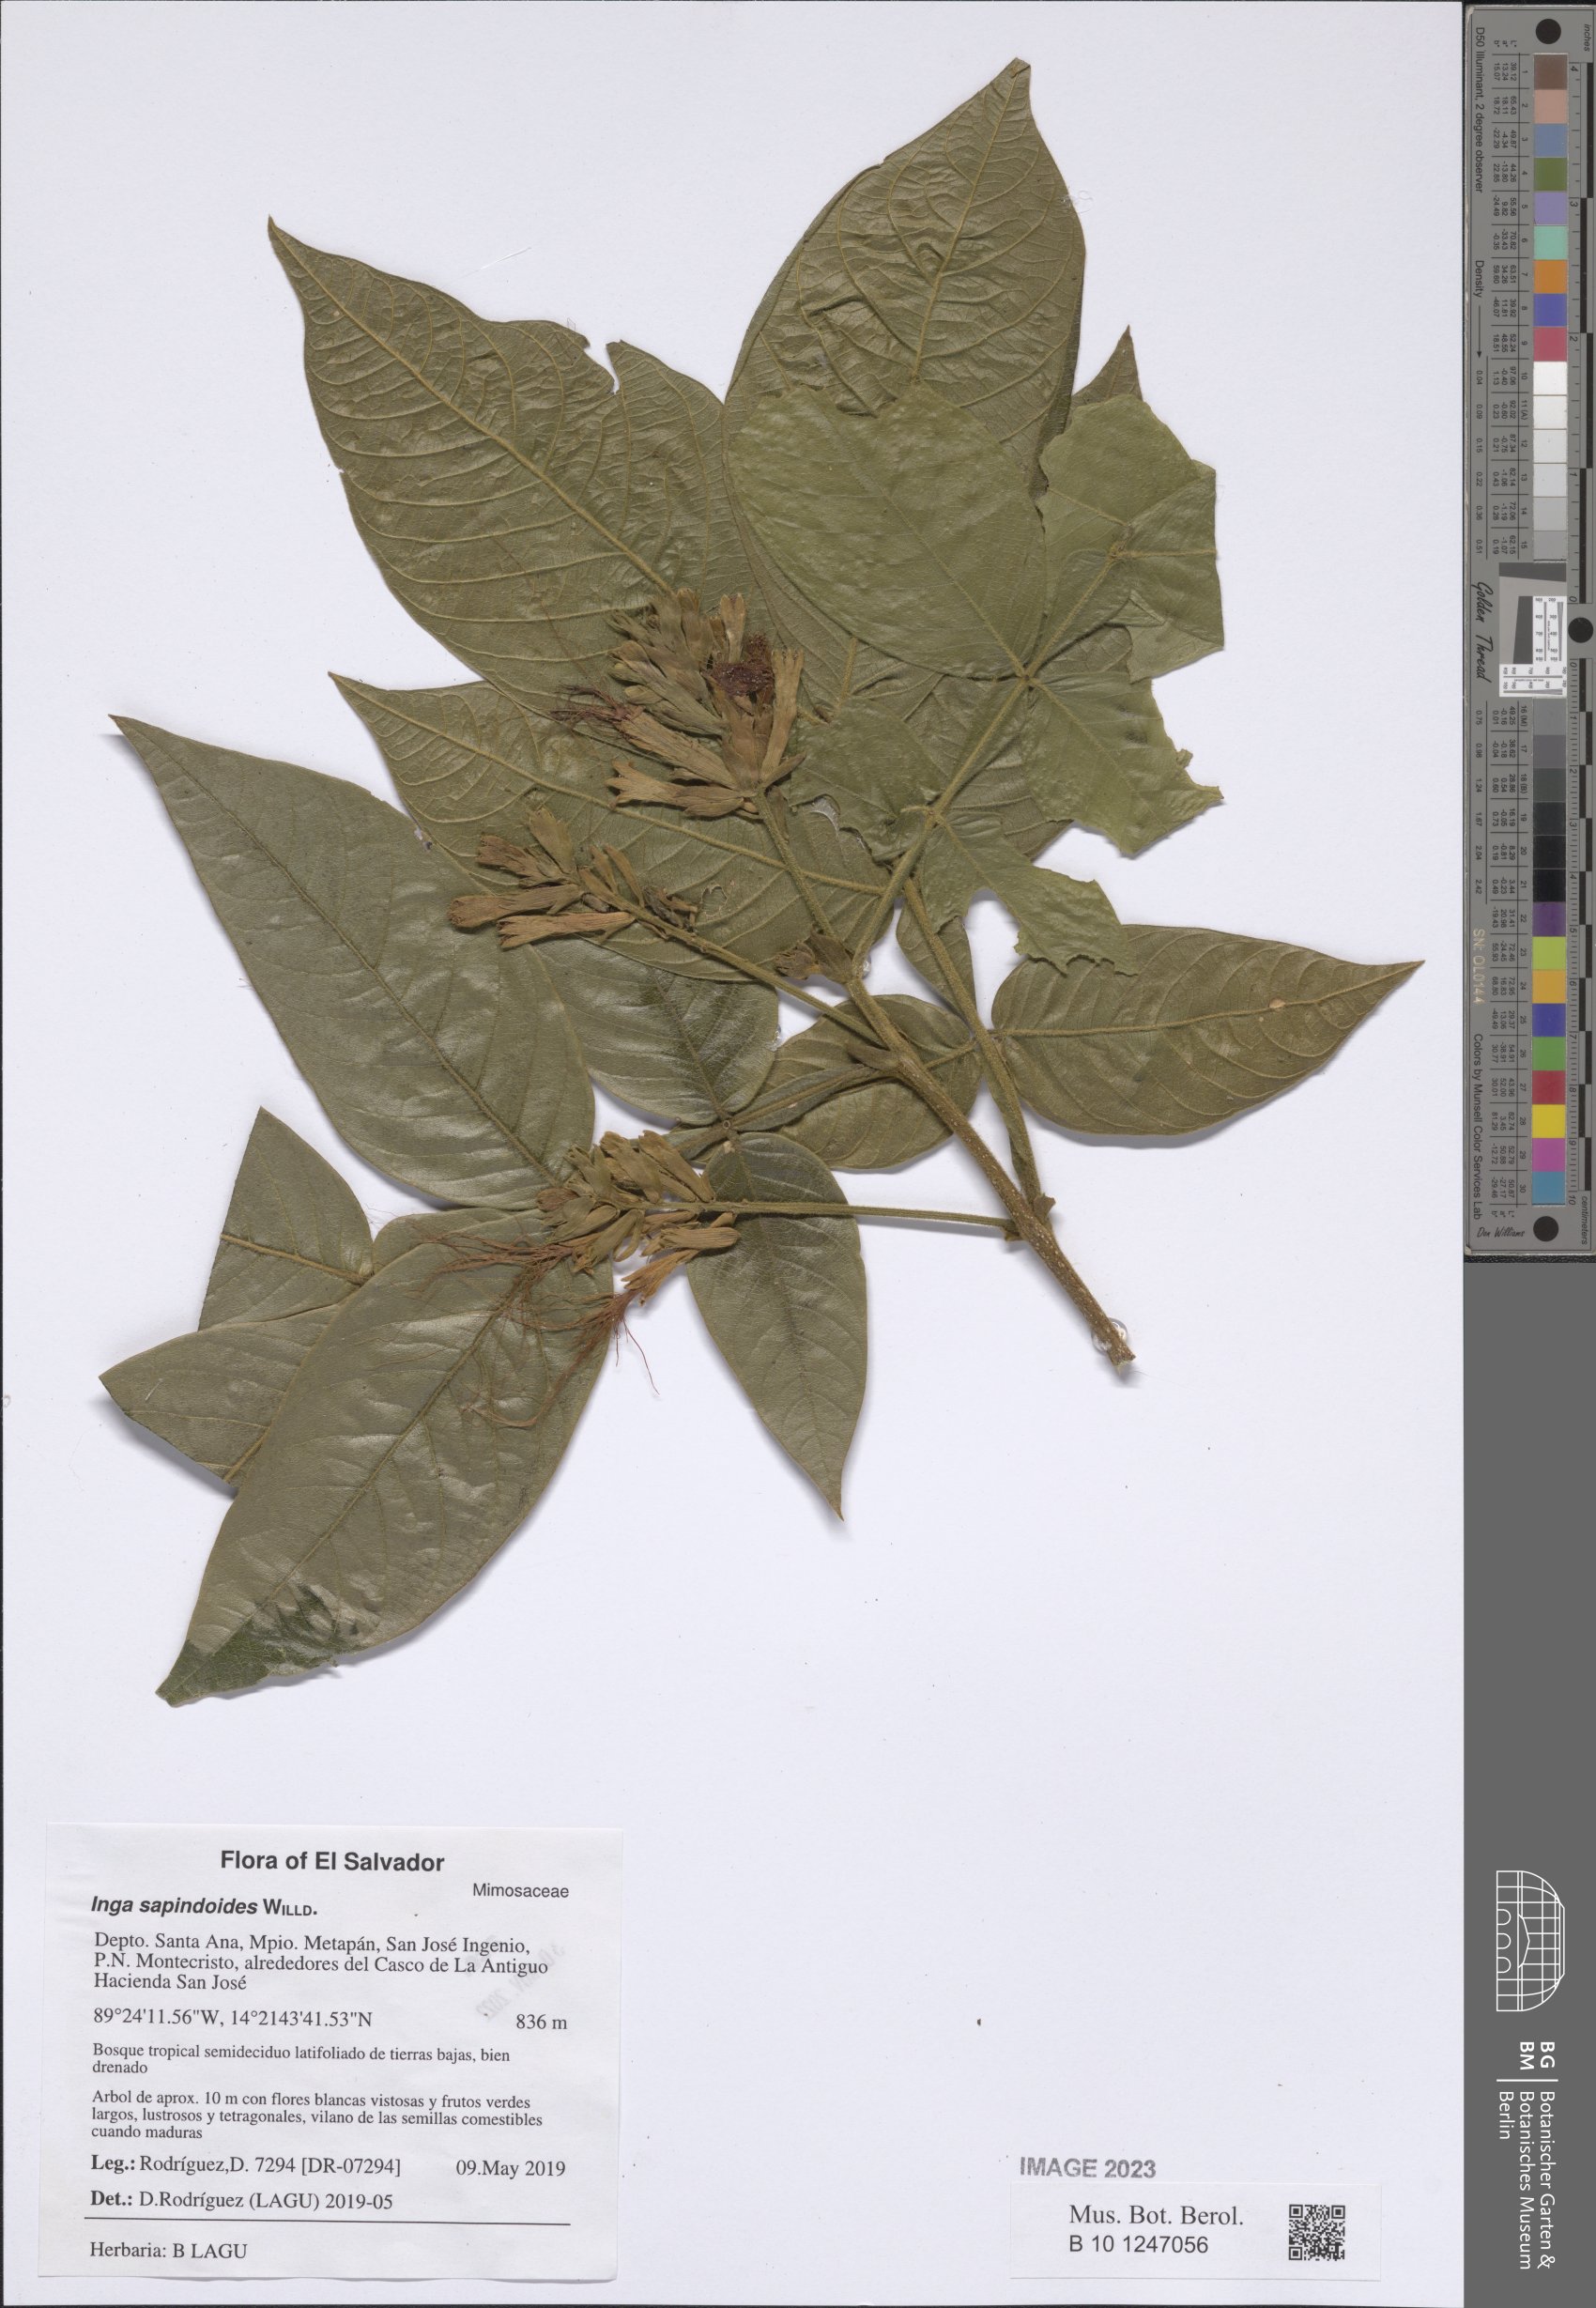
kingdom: Plantae
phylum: Tracheophyta
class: Magnoliopsida
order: Fabales
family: Fabaceae
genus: Inga
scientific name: Inga sapindoides
